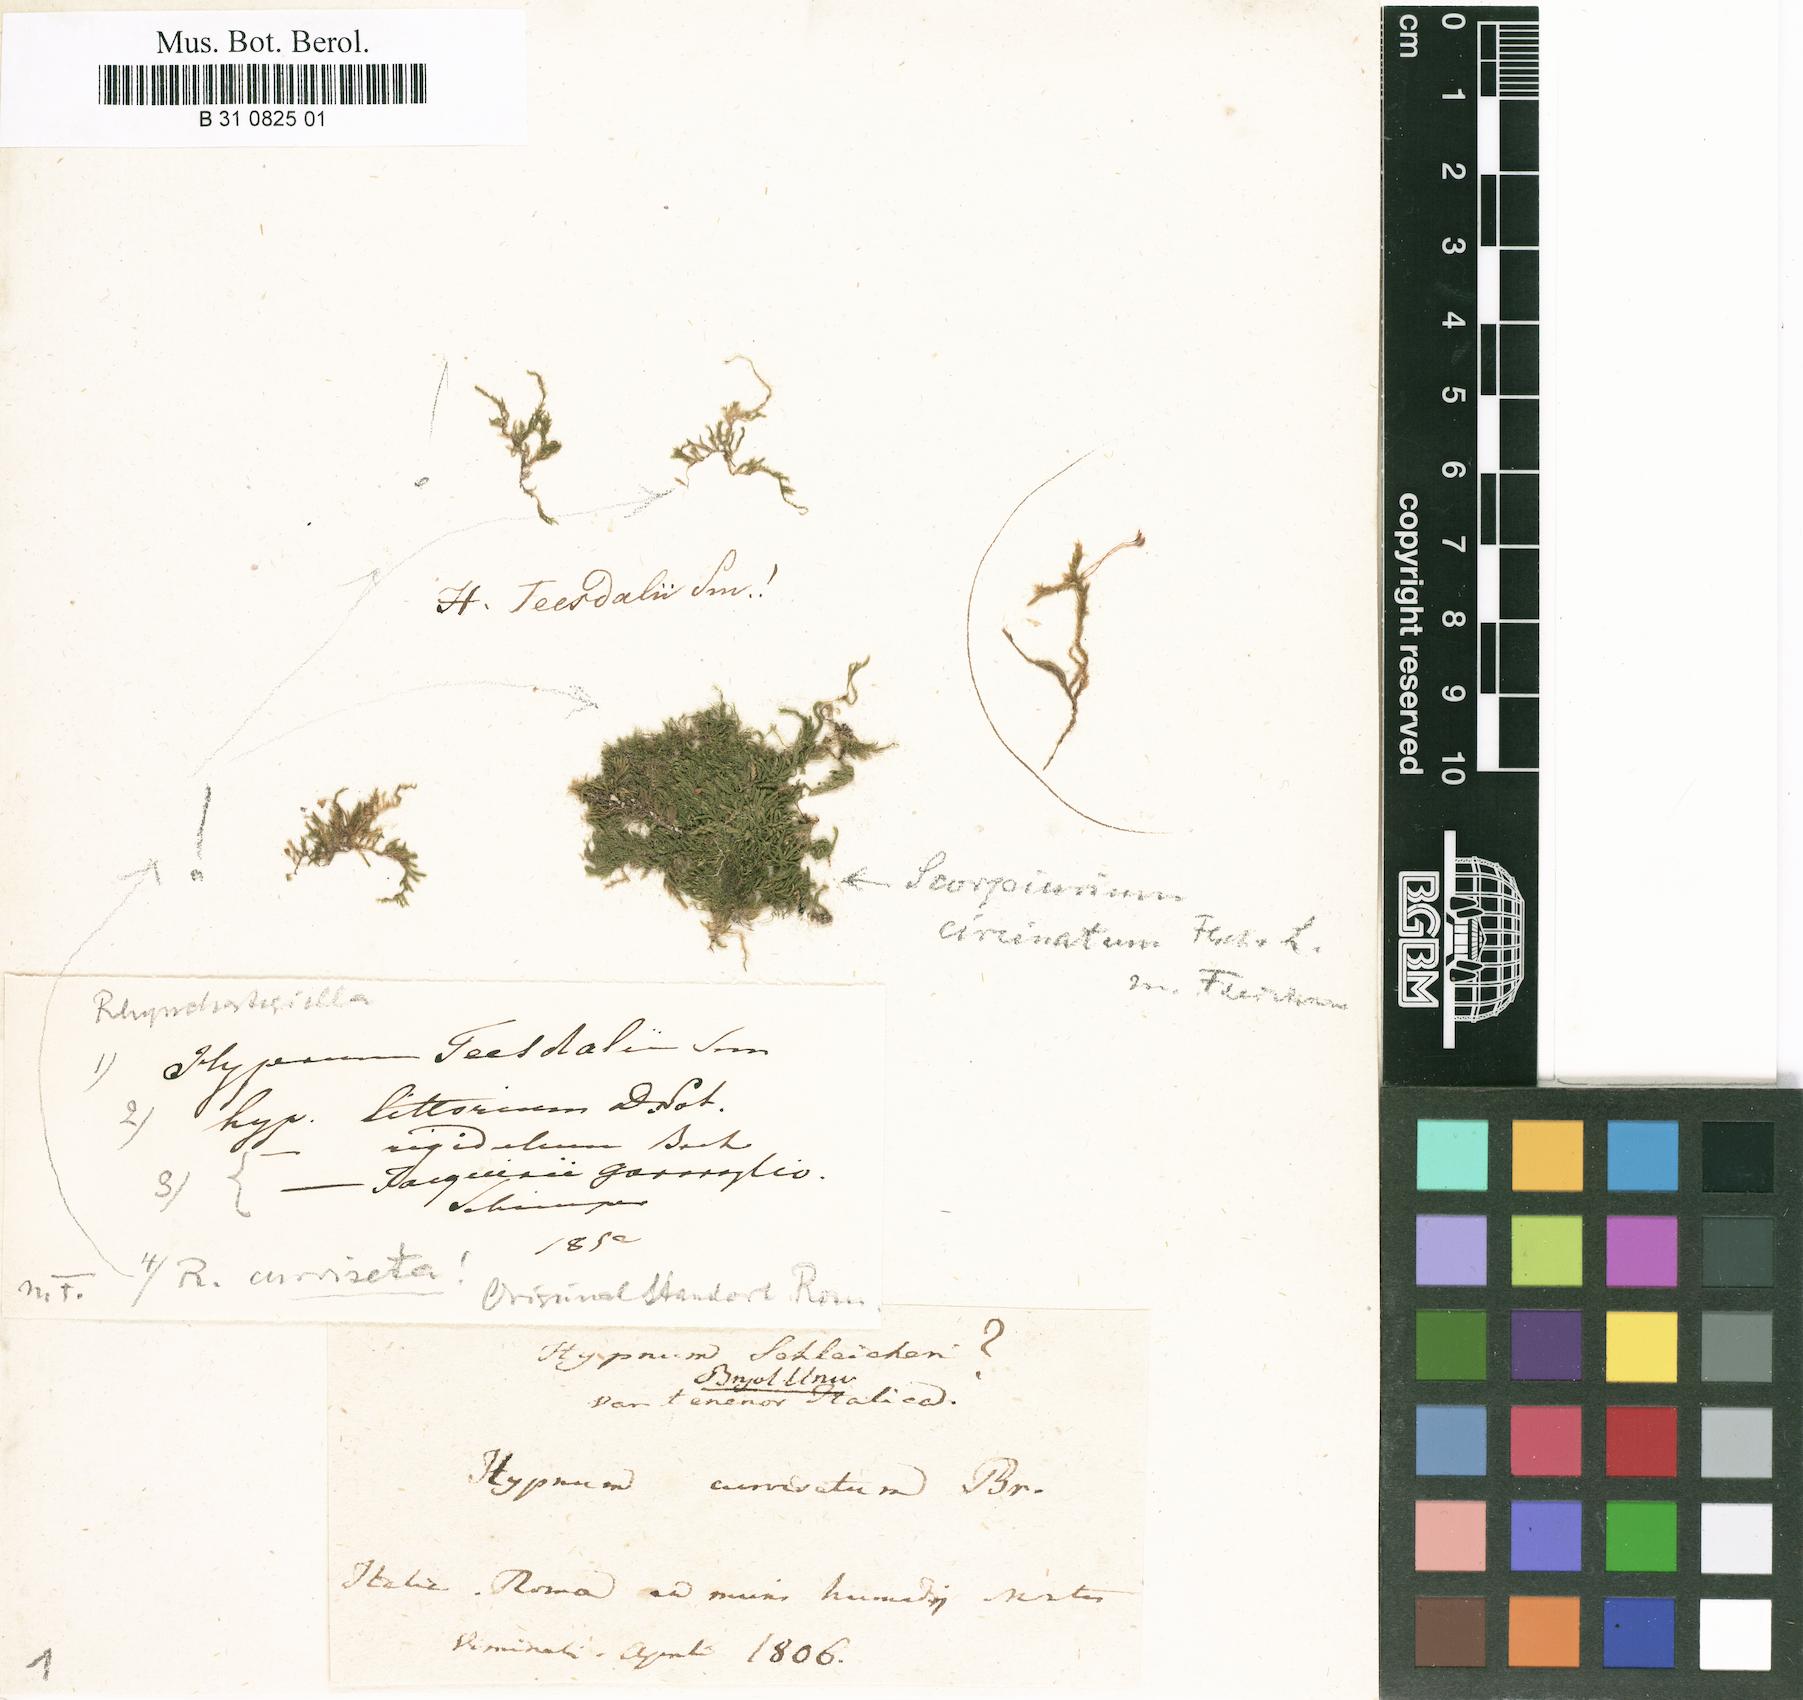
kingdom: Plantae
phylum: Bryophyta
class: Bryopsida
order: Hypnales
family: Brachytheciaceae
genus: Oxyrrhynchium
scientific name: Oxyrrhynchium schleicheri
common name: Twist-tip feather-moss
